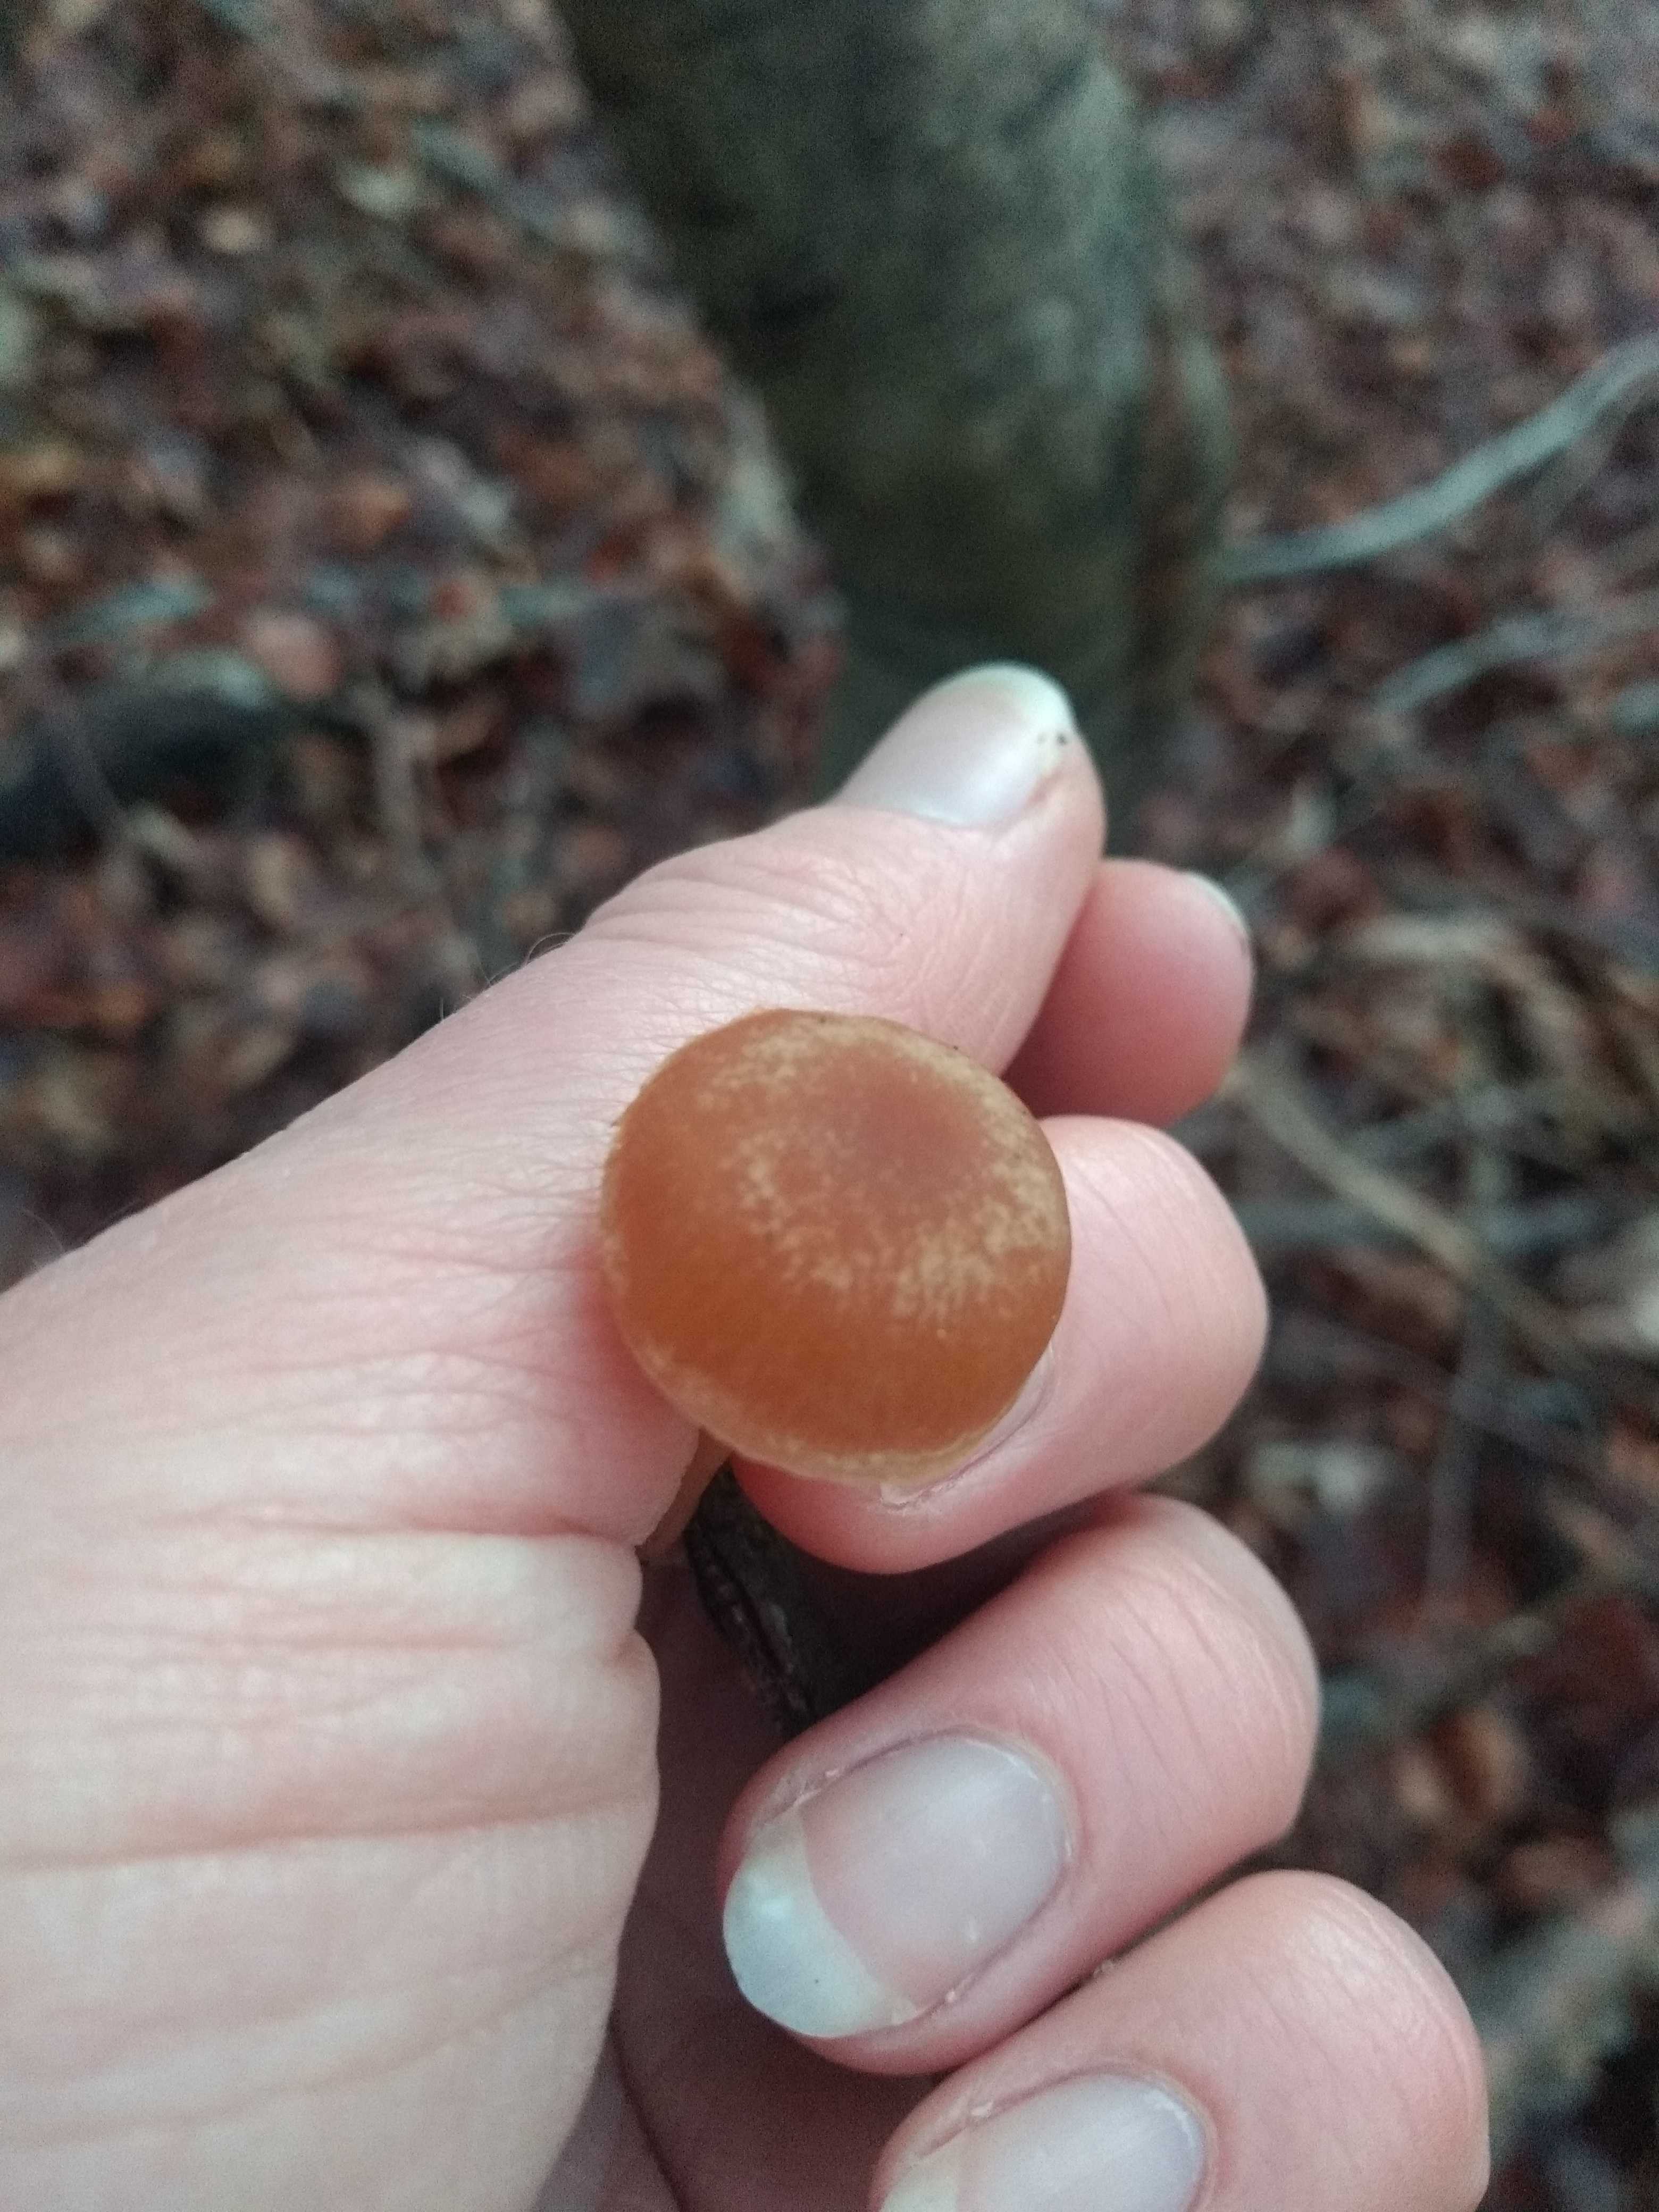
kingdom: Fungi
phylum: Basidiomycota
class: Agaricomycetes
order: Agaricales
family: Tubariaceae
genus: Tubaria
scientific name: Tubaria furfuracea
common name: kliddet fnughat
